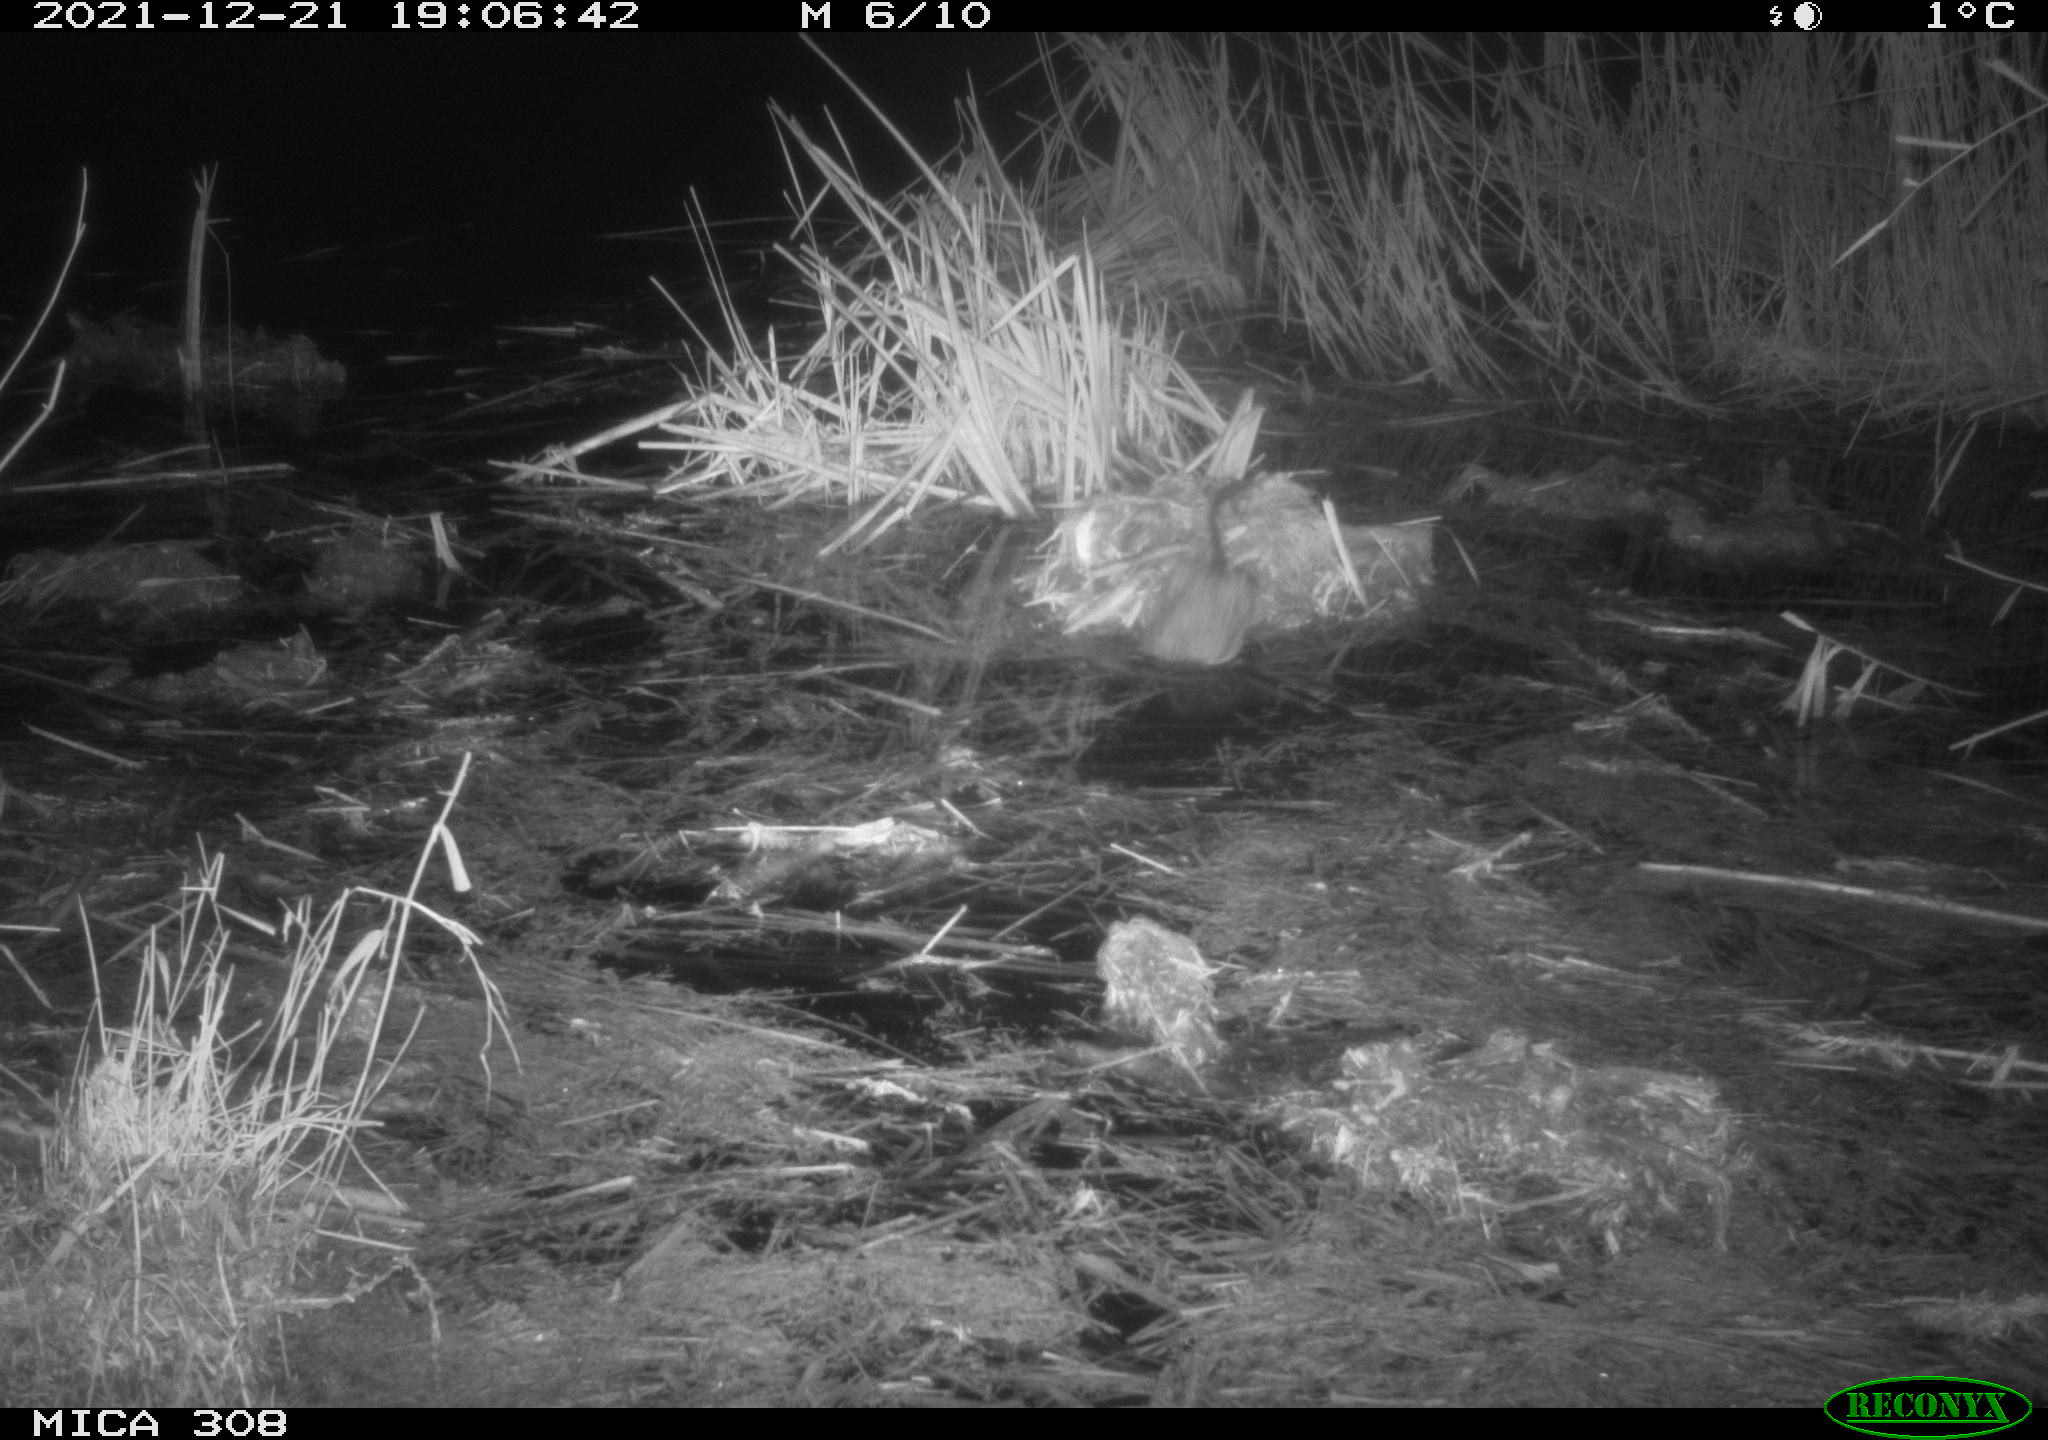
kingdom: Animalia
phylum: Chordata
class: Mammalia
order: Rodentia
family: Cricetidae
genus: Ondatra
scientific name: Ondatra zibethicus
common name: Muskrat
